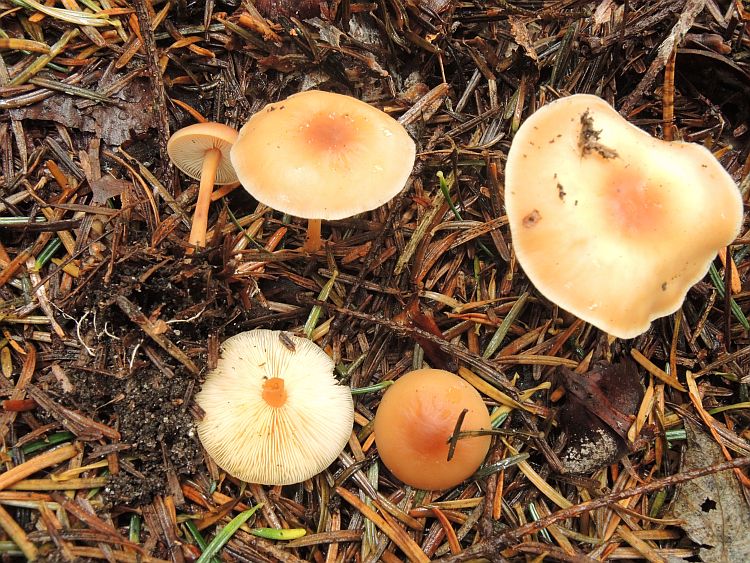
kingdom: Fungi
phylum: Basidiomycota
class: Agaricomycetes
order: Agaricales
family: Omphalotaceae
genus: Gymnopus
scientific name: Gymnopus ocior
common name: mørk fladhat
